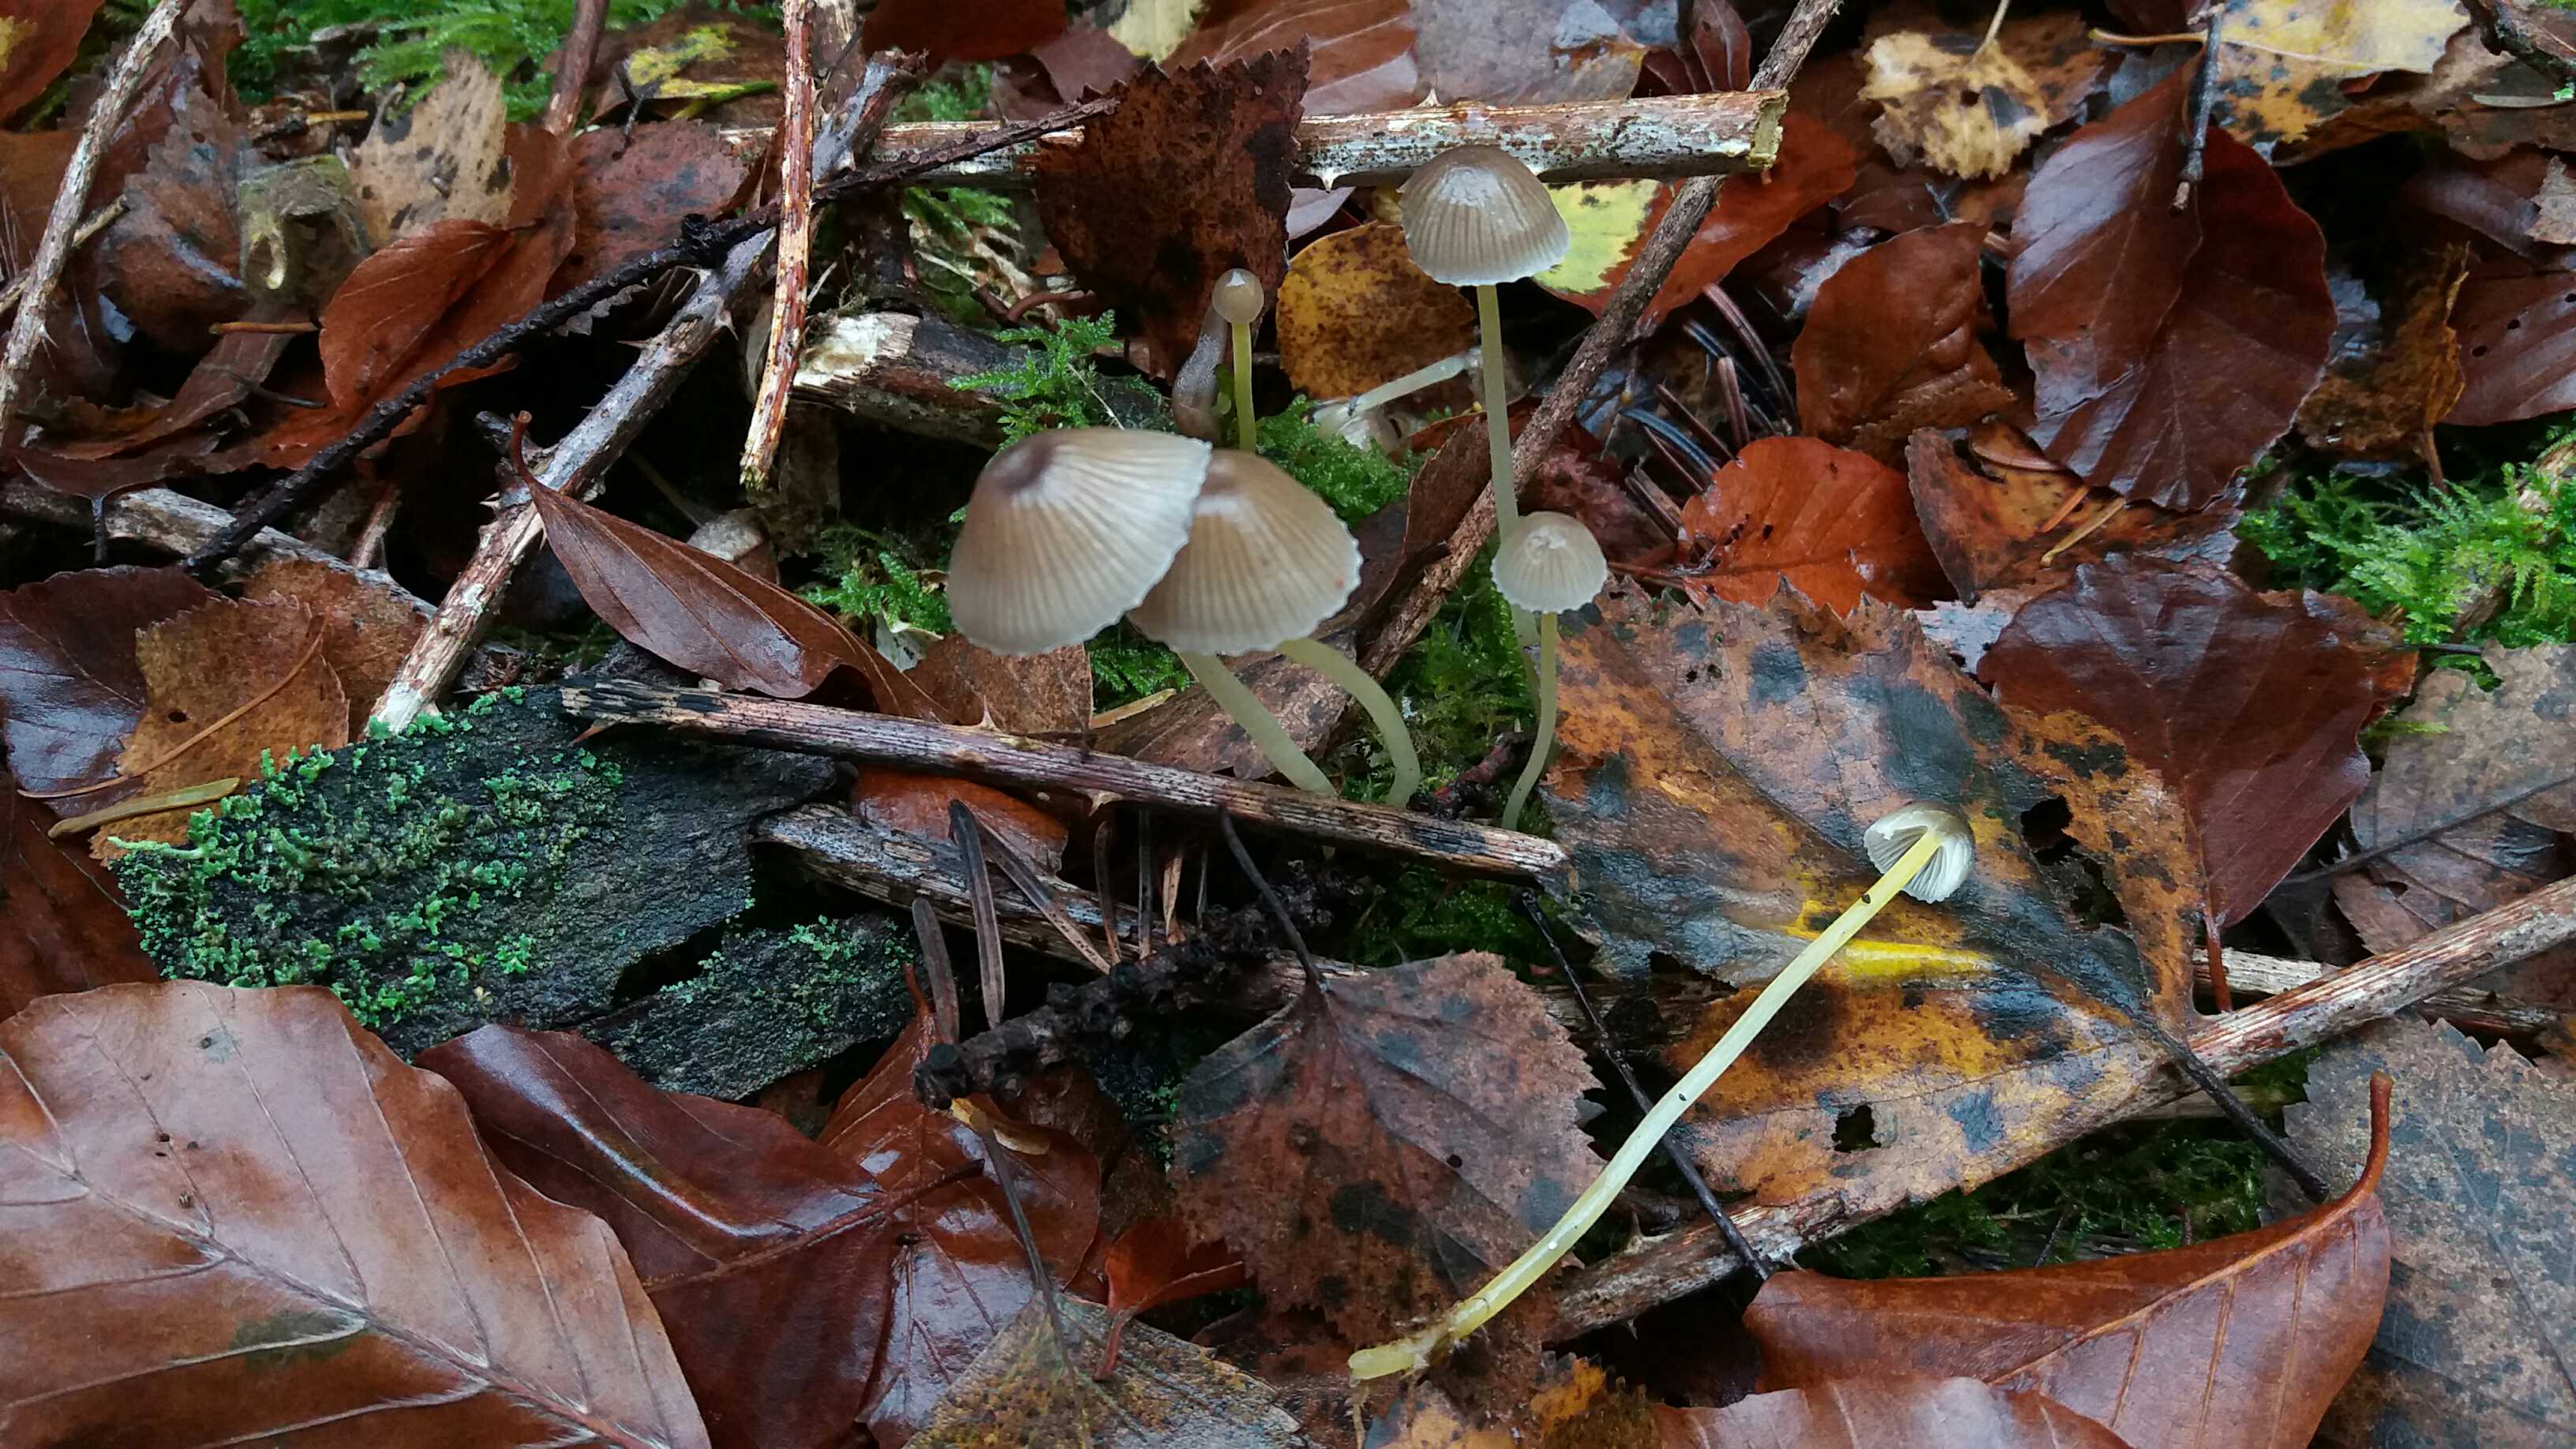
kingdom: Fungi
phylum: Basidiomycota
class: Agaricomycetes
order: Agaricales
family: Mycenaceae
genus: Mycena
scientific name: Mycena epipterygia
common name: gulstokket huesvamp
